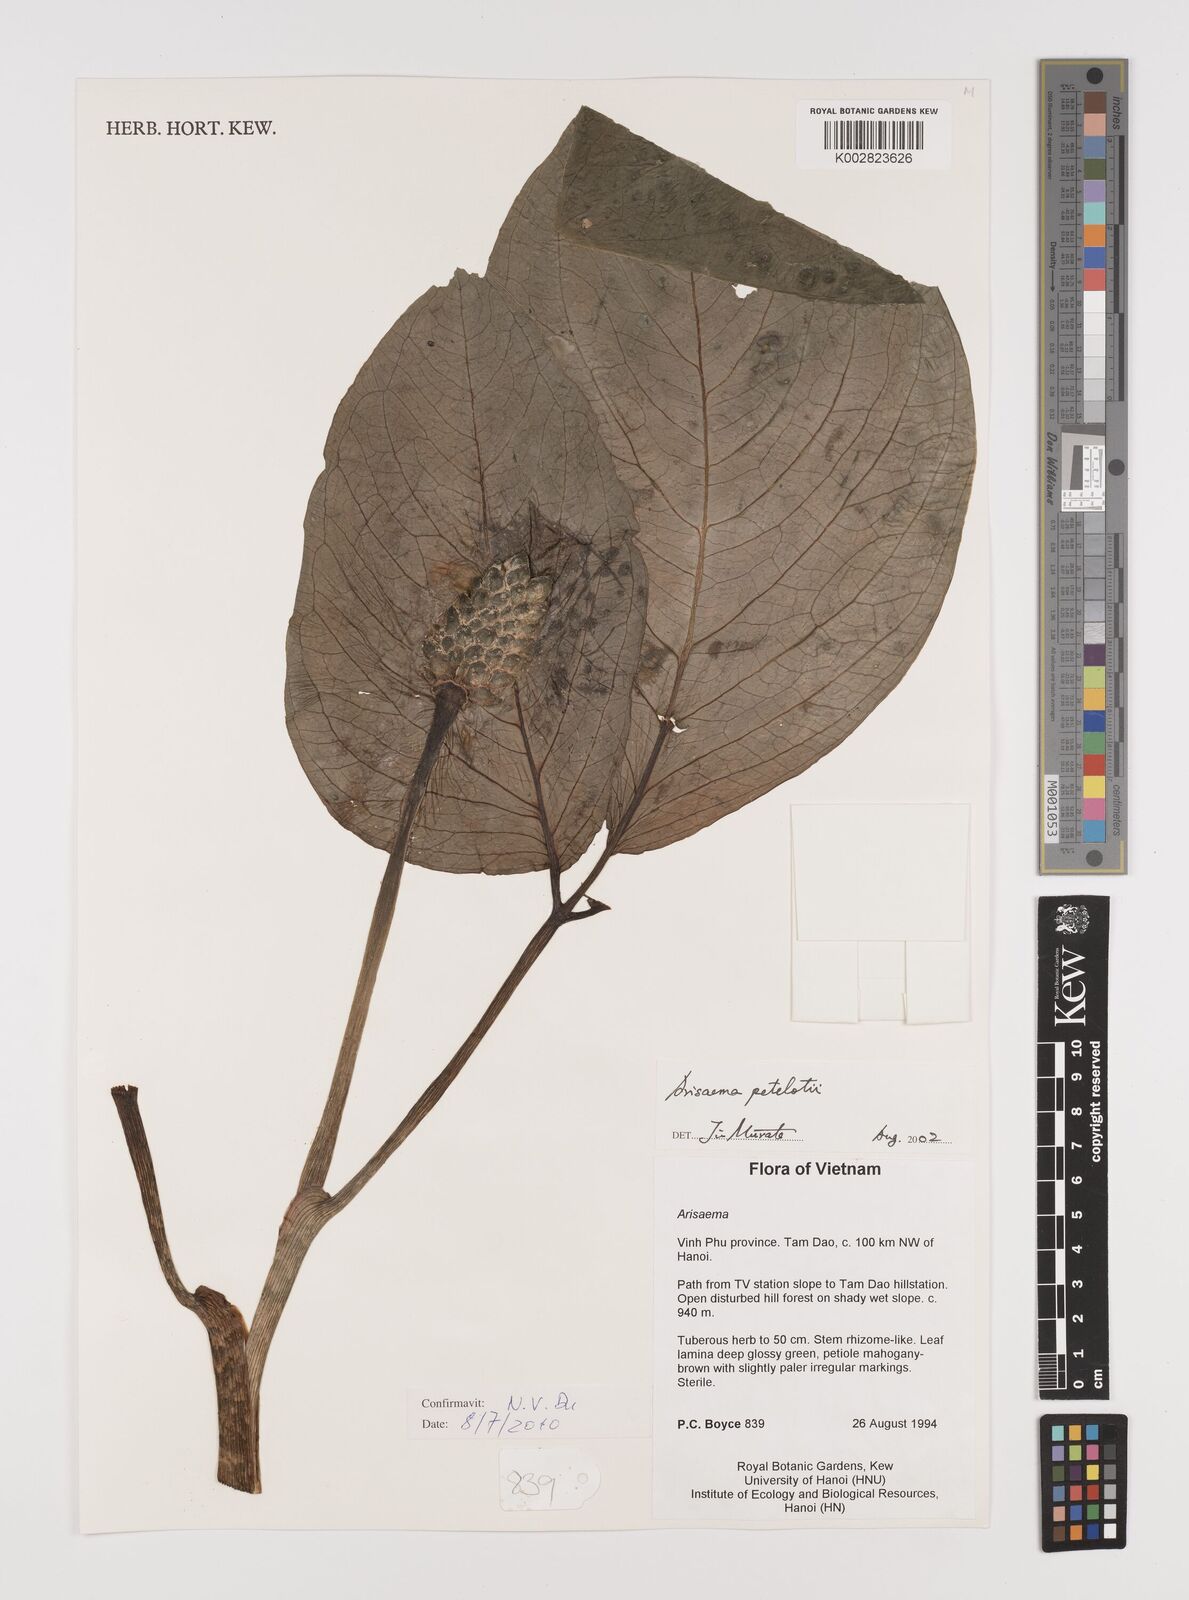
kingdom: Plantae
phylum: Tracheophyta
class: Liliopsida
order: Alismatales
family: Araceae
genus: Arisaema
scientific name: Arisaema petelotii
